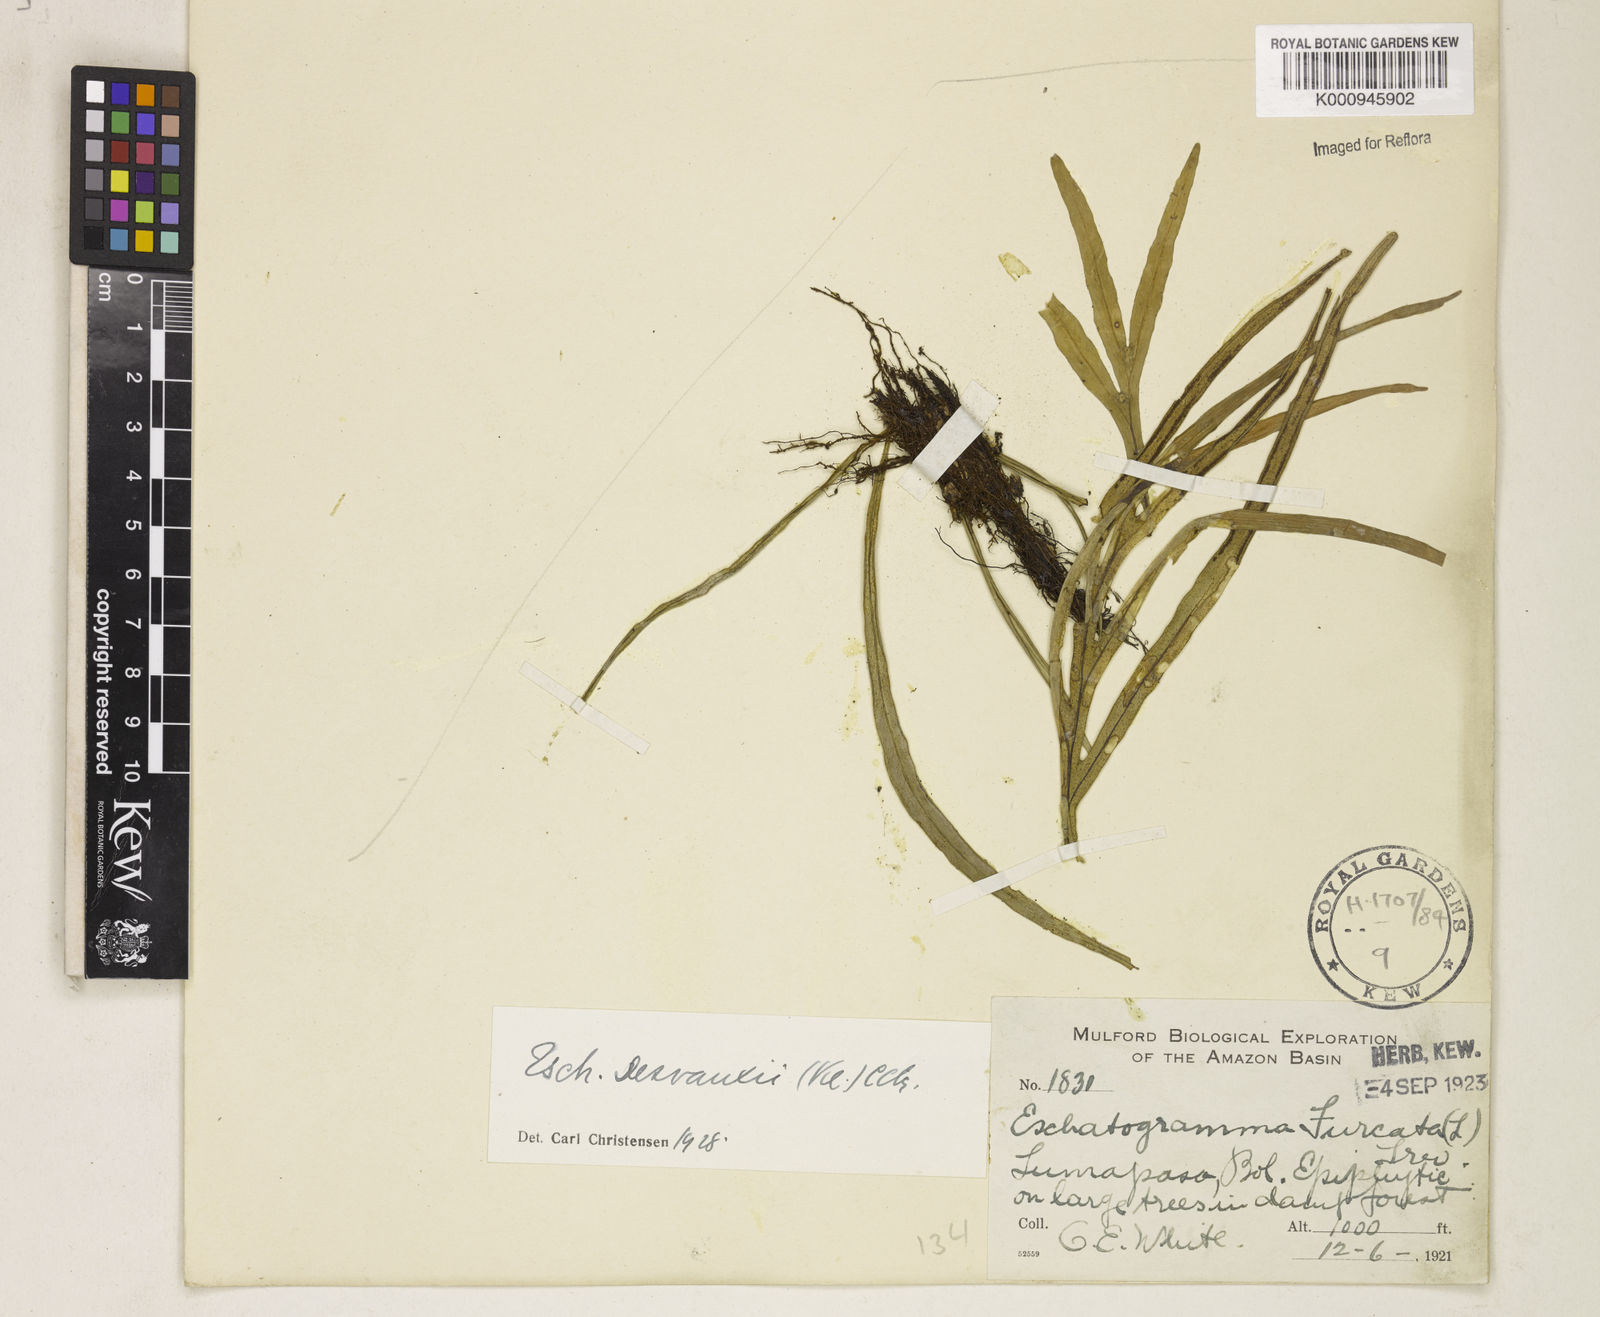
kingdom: Plantae
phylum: Tracheophyta
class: Polypodiopsida
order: Polypodiales
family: Polypodiaceae
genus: Pleopeltis
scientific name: Pleopeltis desvauxii
